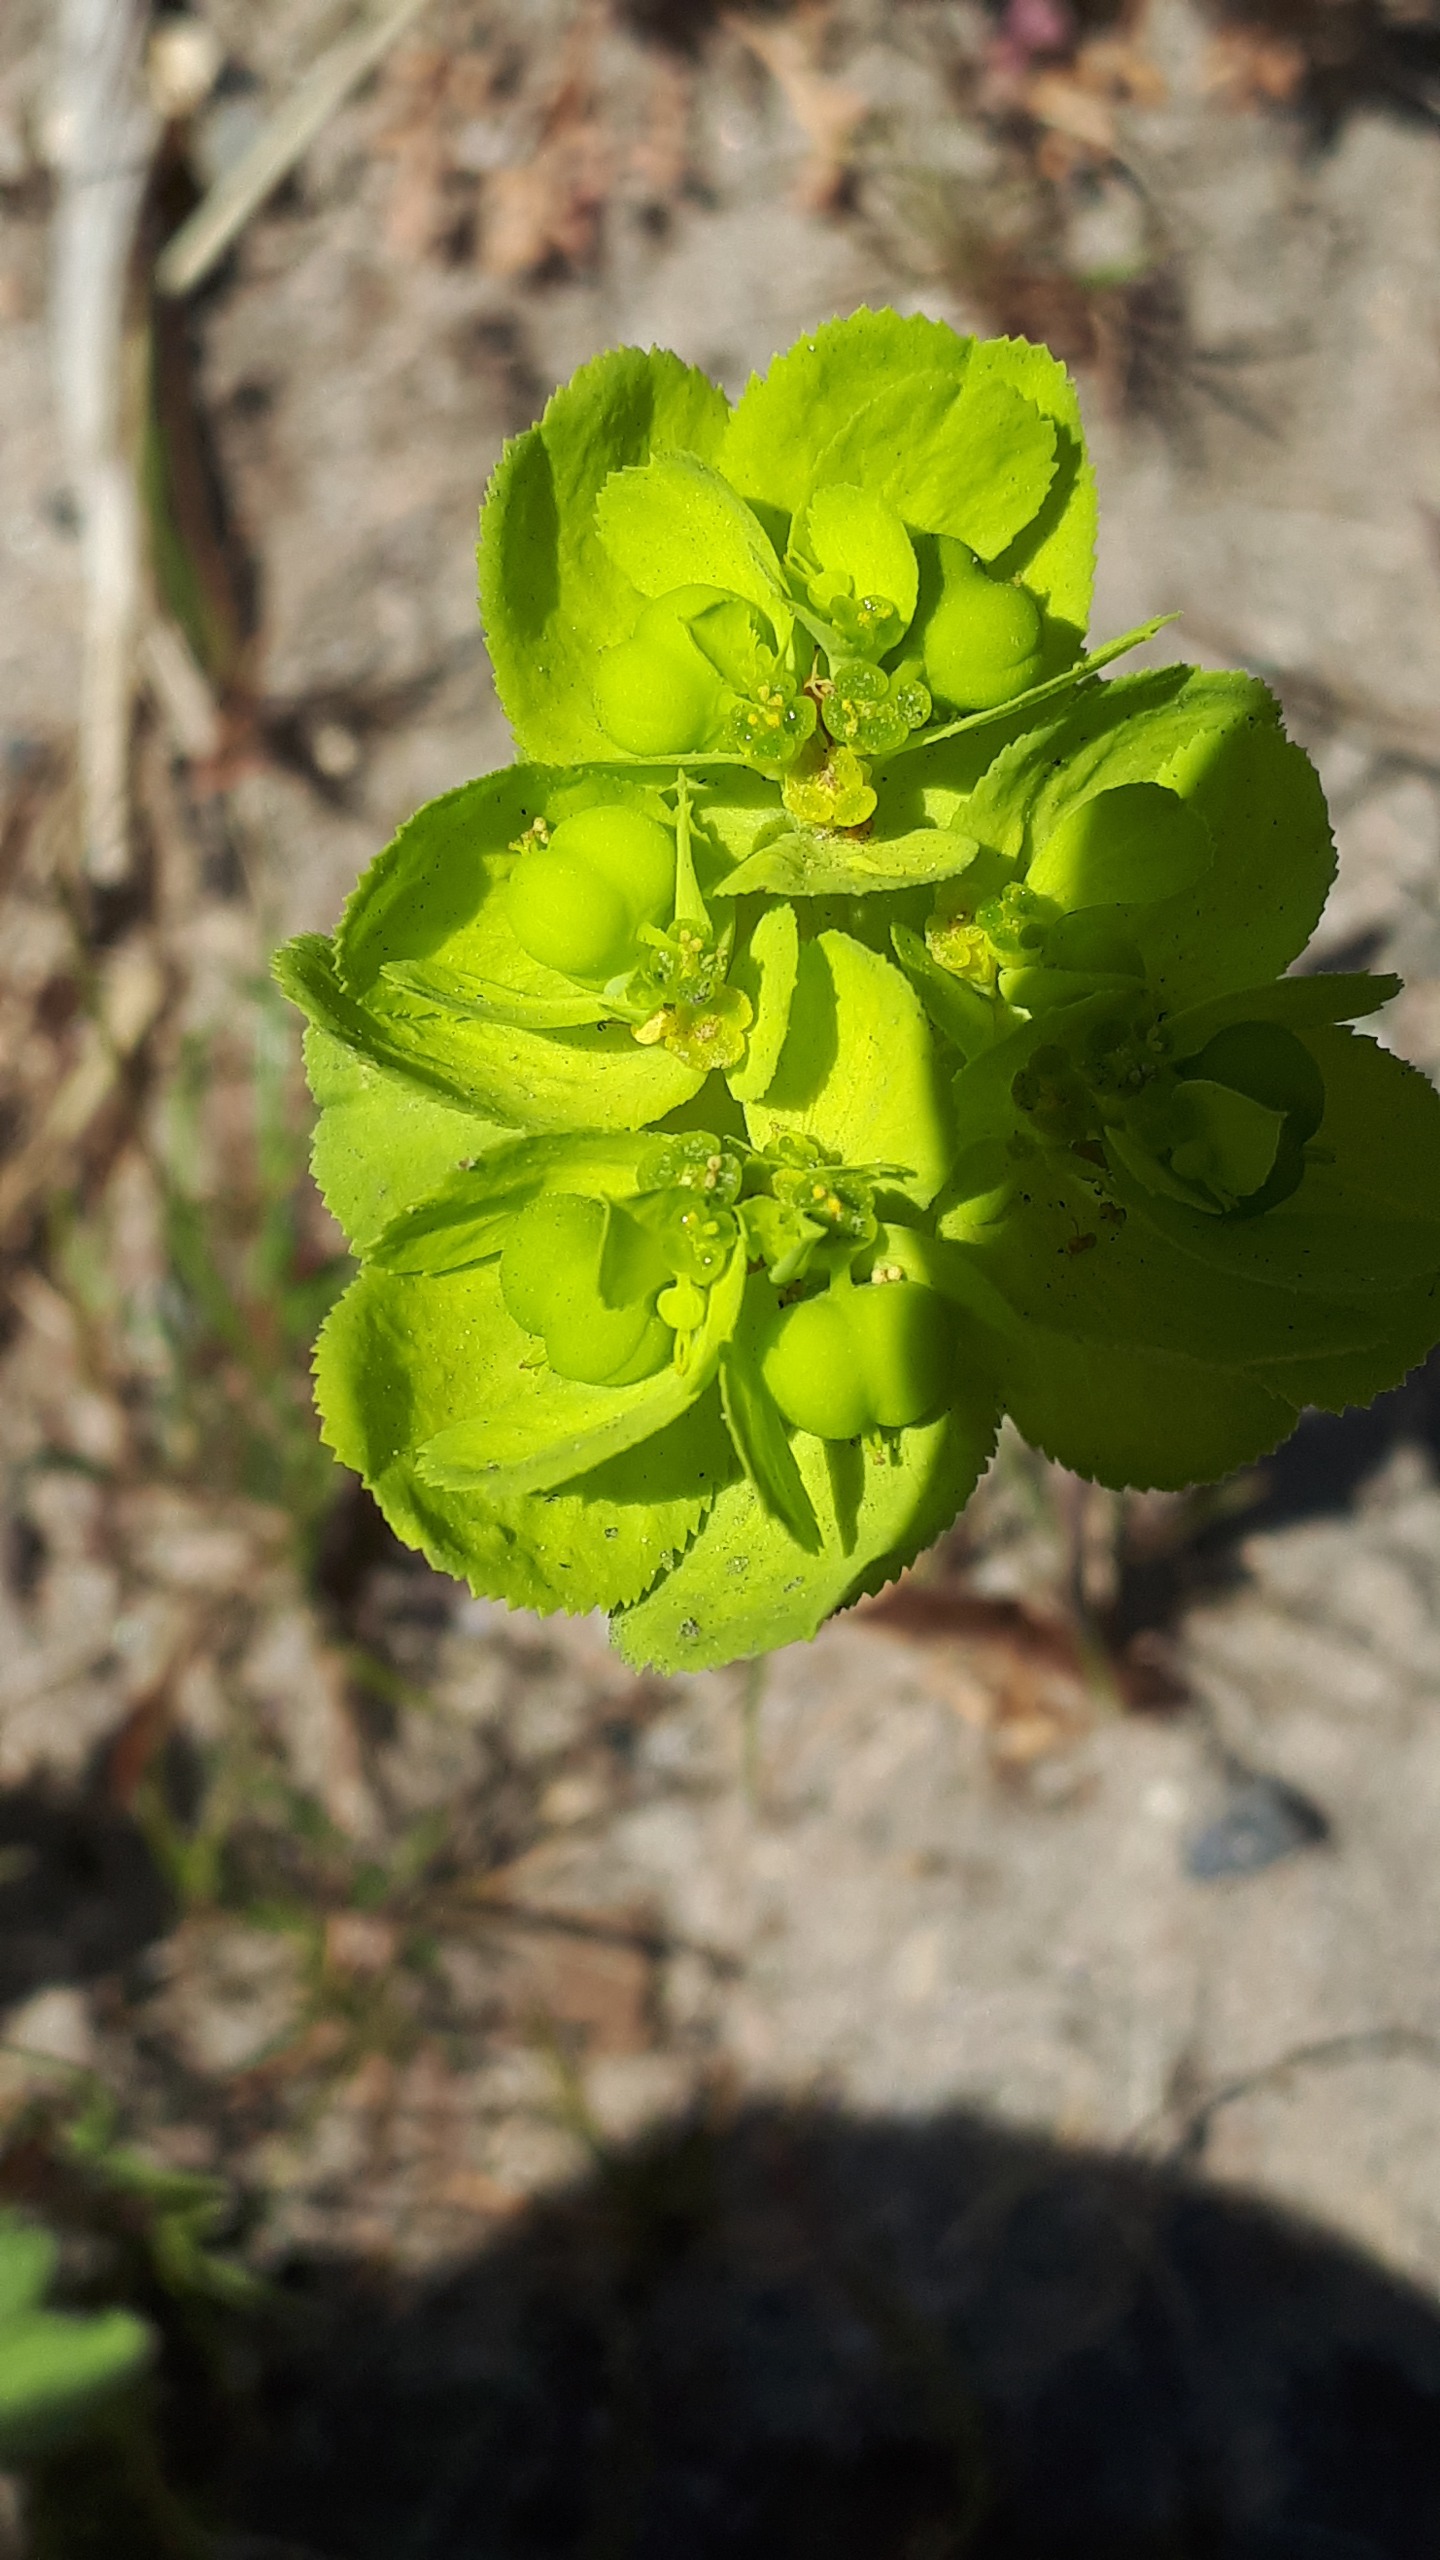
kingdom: Plantae
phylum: Tracheophyta
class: Magnoliopsida
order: Malpighiales
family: Euphorbiaceae
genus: Euphorbia
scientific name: Euphorbia helioscopia
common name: Skærm-vortemælk
